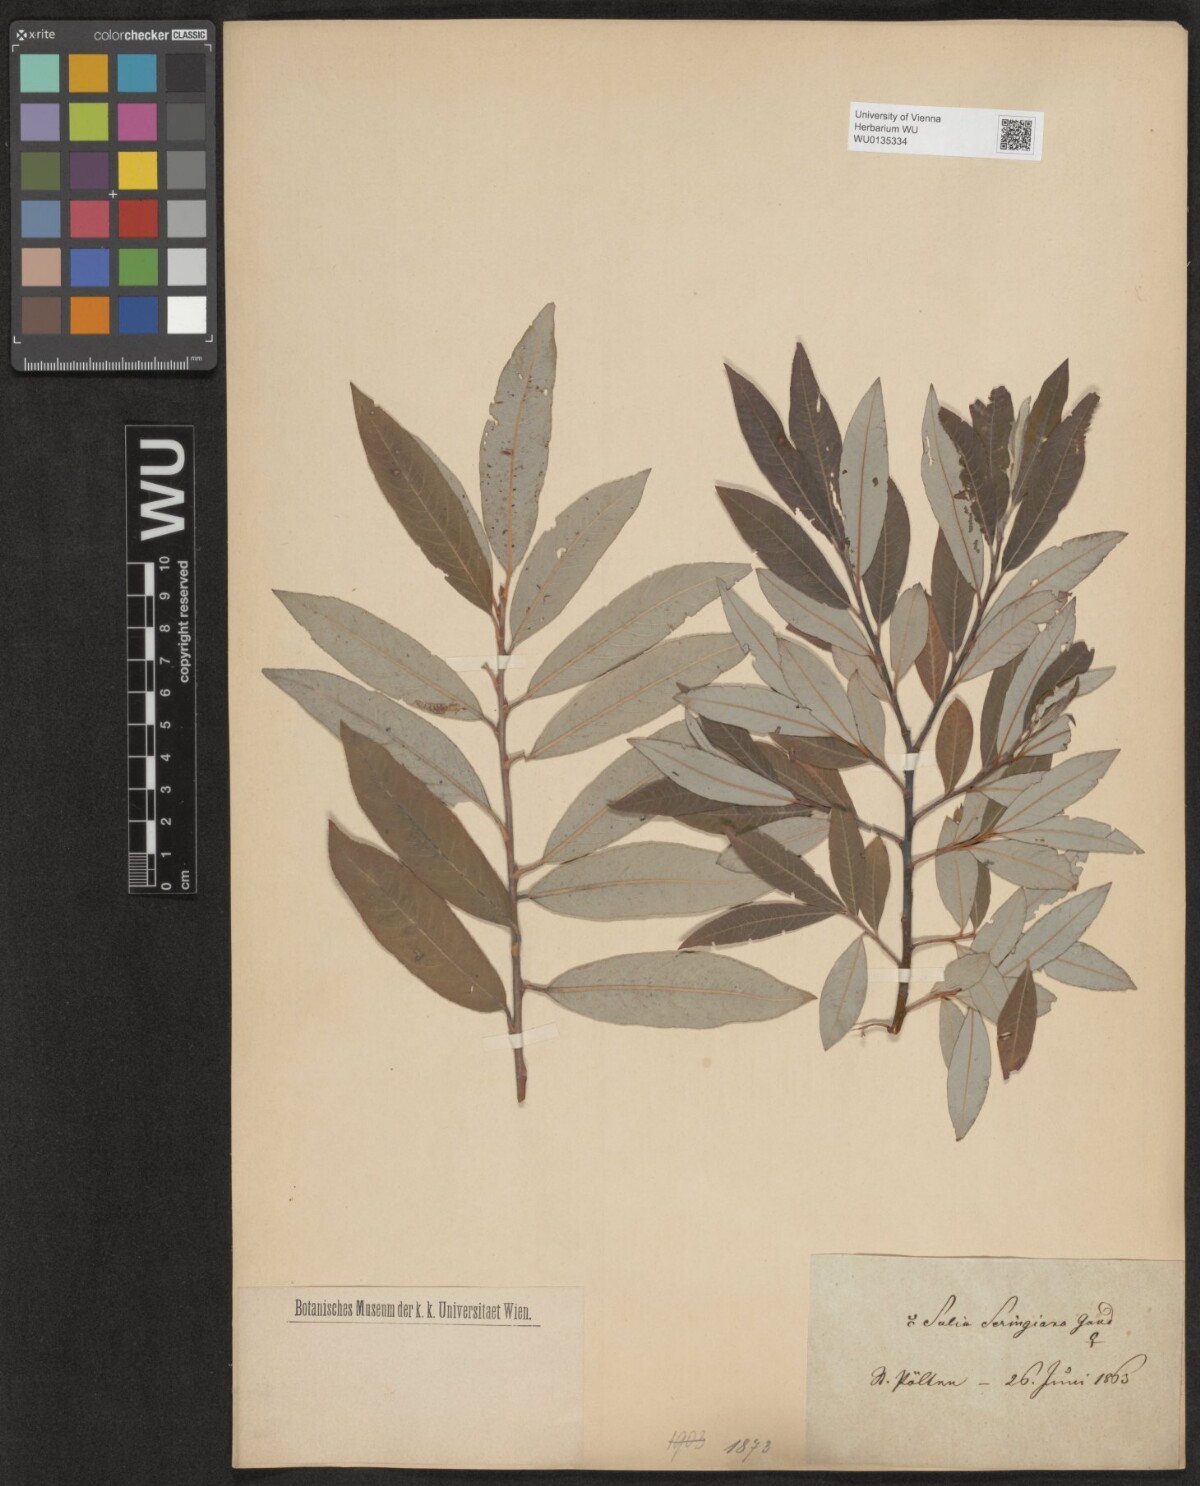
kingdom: Plantae
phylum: Tracheophyta
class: Magnoliopsida
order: Malpighiales
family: Salicaceae
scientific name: Salicaceae
